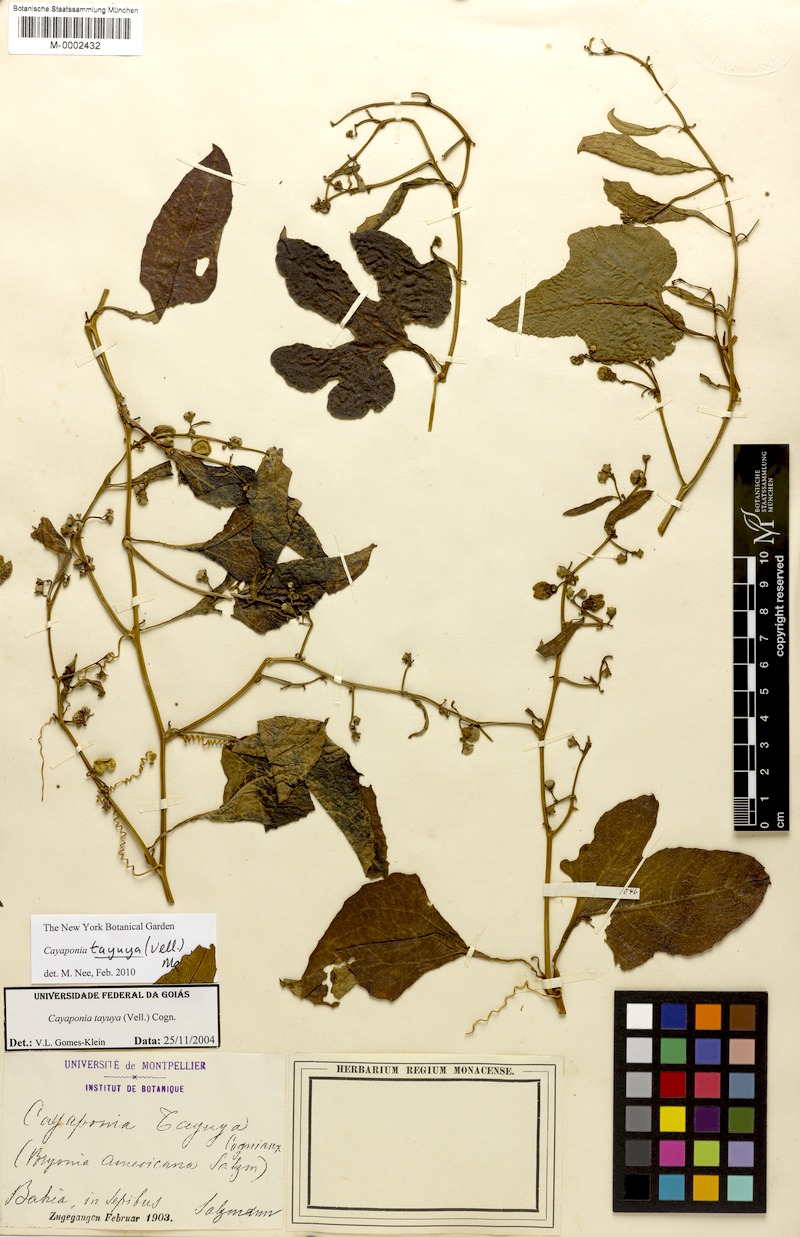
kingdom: Plantae
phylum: Tracheophyta
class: Magnoliopsida
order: Cucurbitales
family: Cucurbitaceae
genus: Cayaponia
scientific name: Cayaponia tayuya
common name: Tayuya
